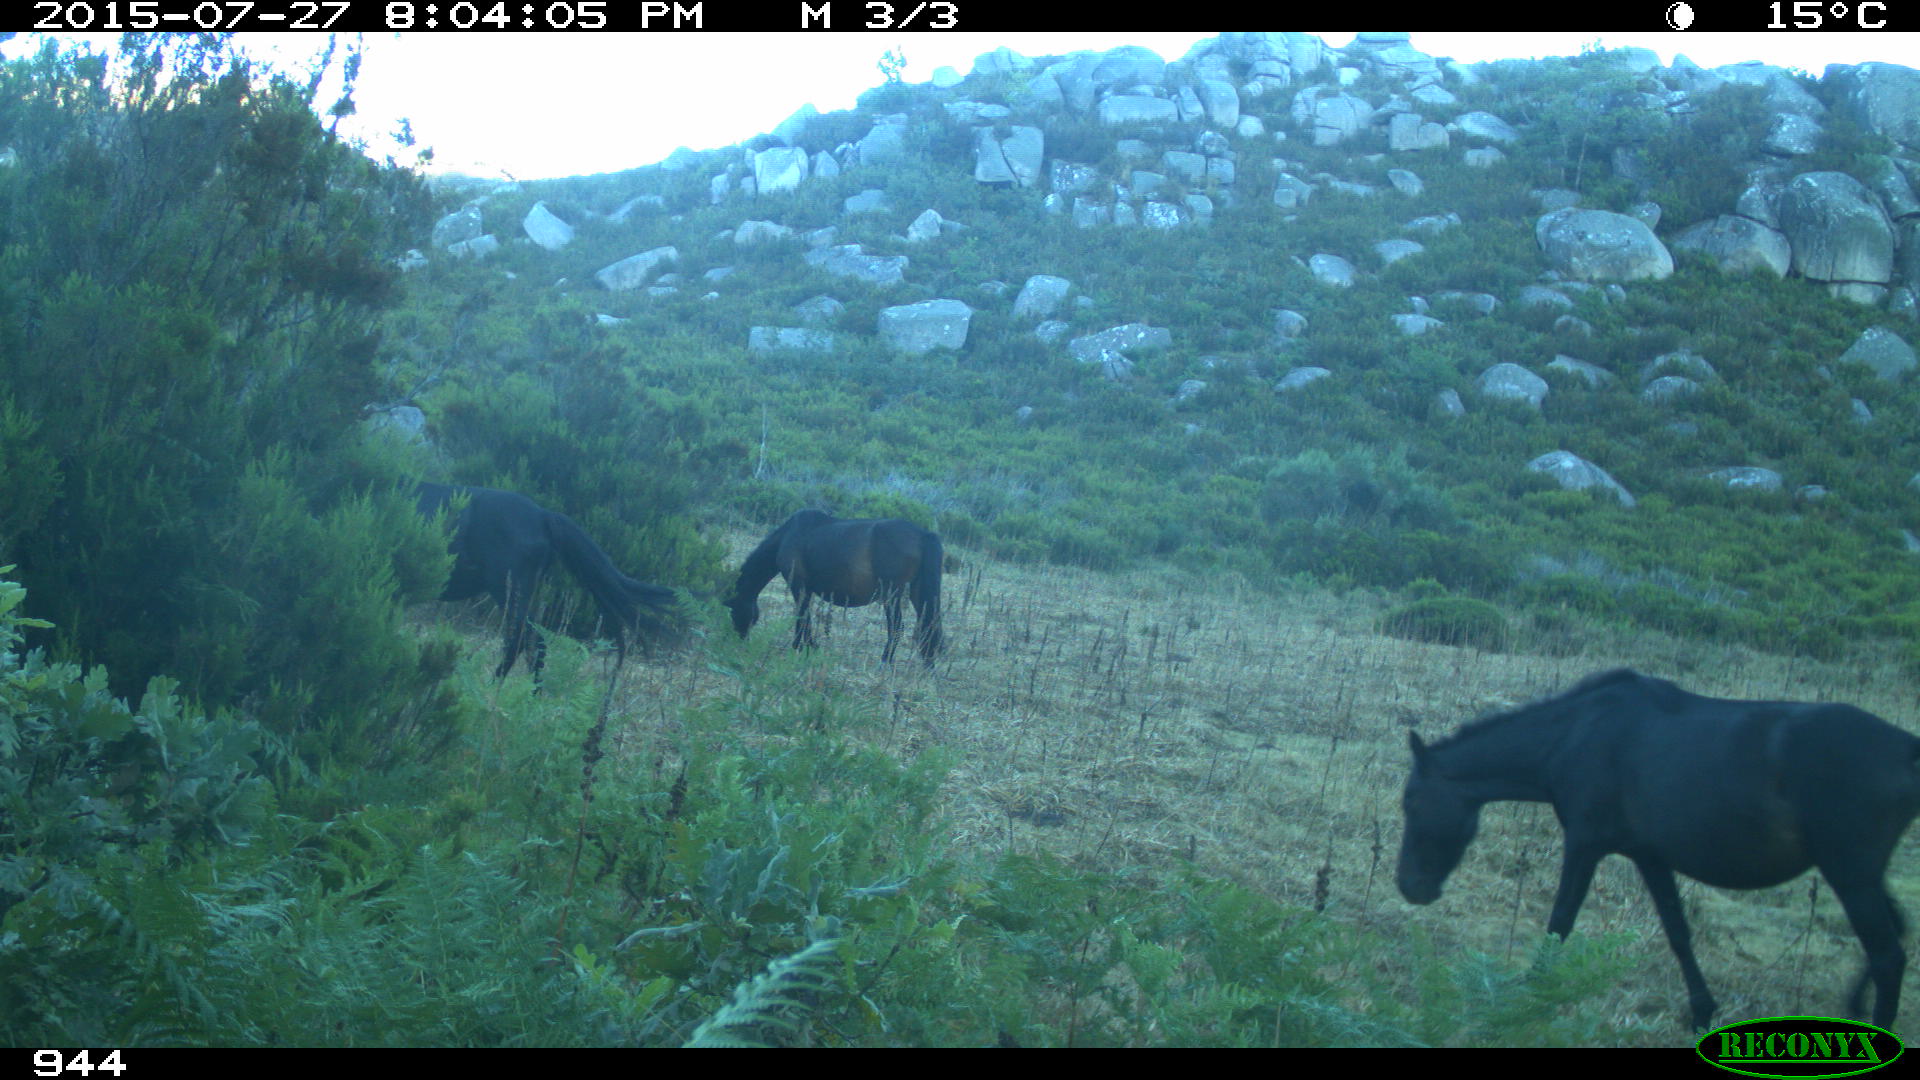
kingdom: Animalia
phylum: Chordata
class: Mammalia
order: Perissodactyla
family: Equidae
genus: Equus
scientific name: Equus caballus
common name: Horse
